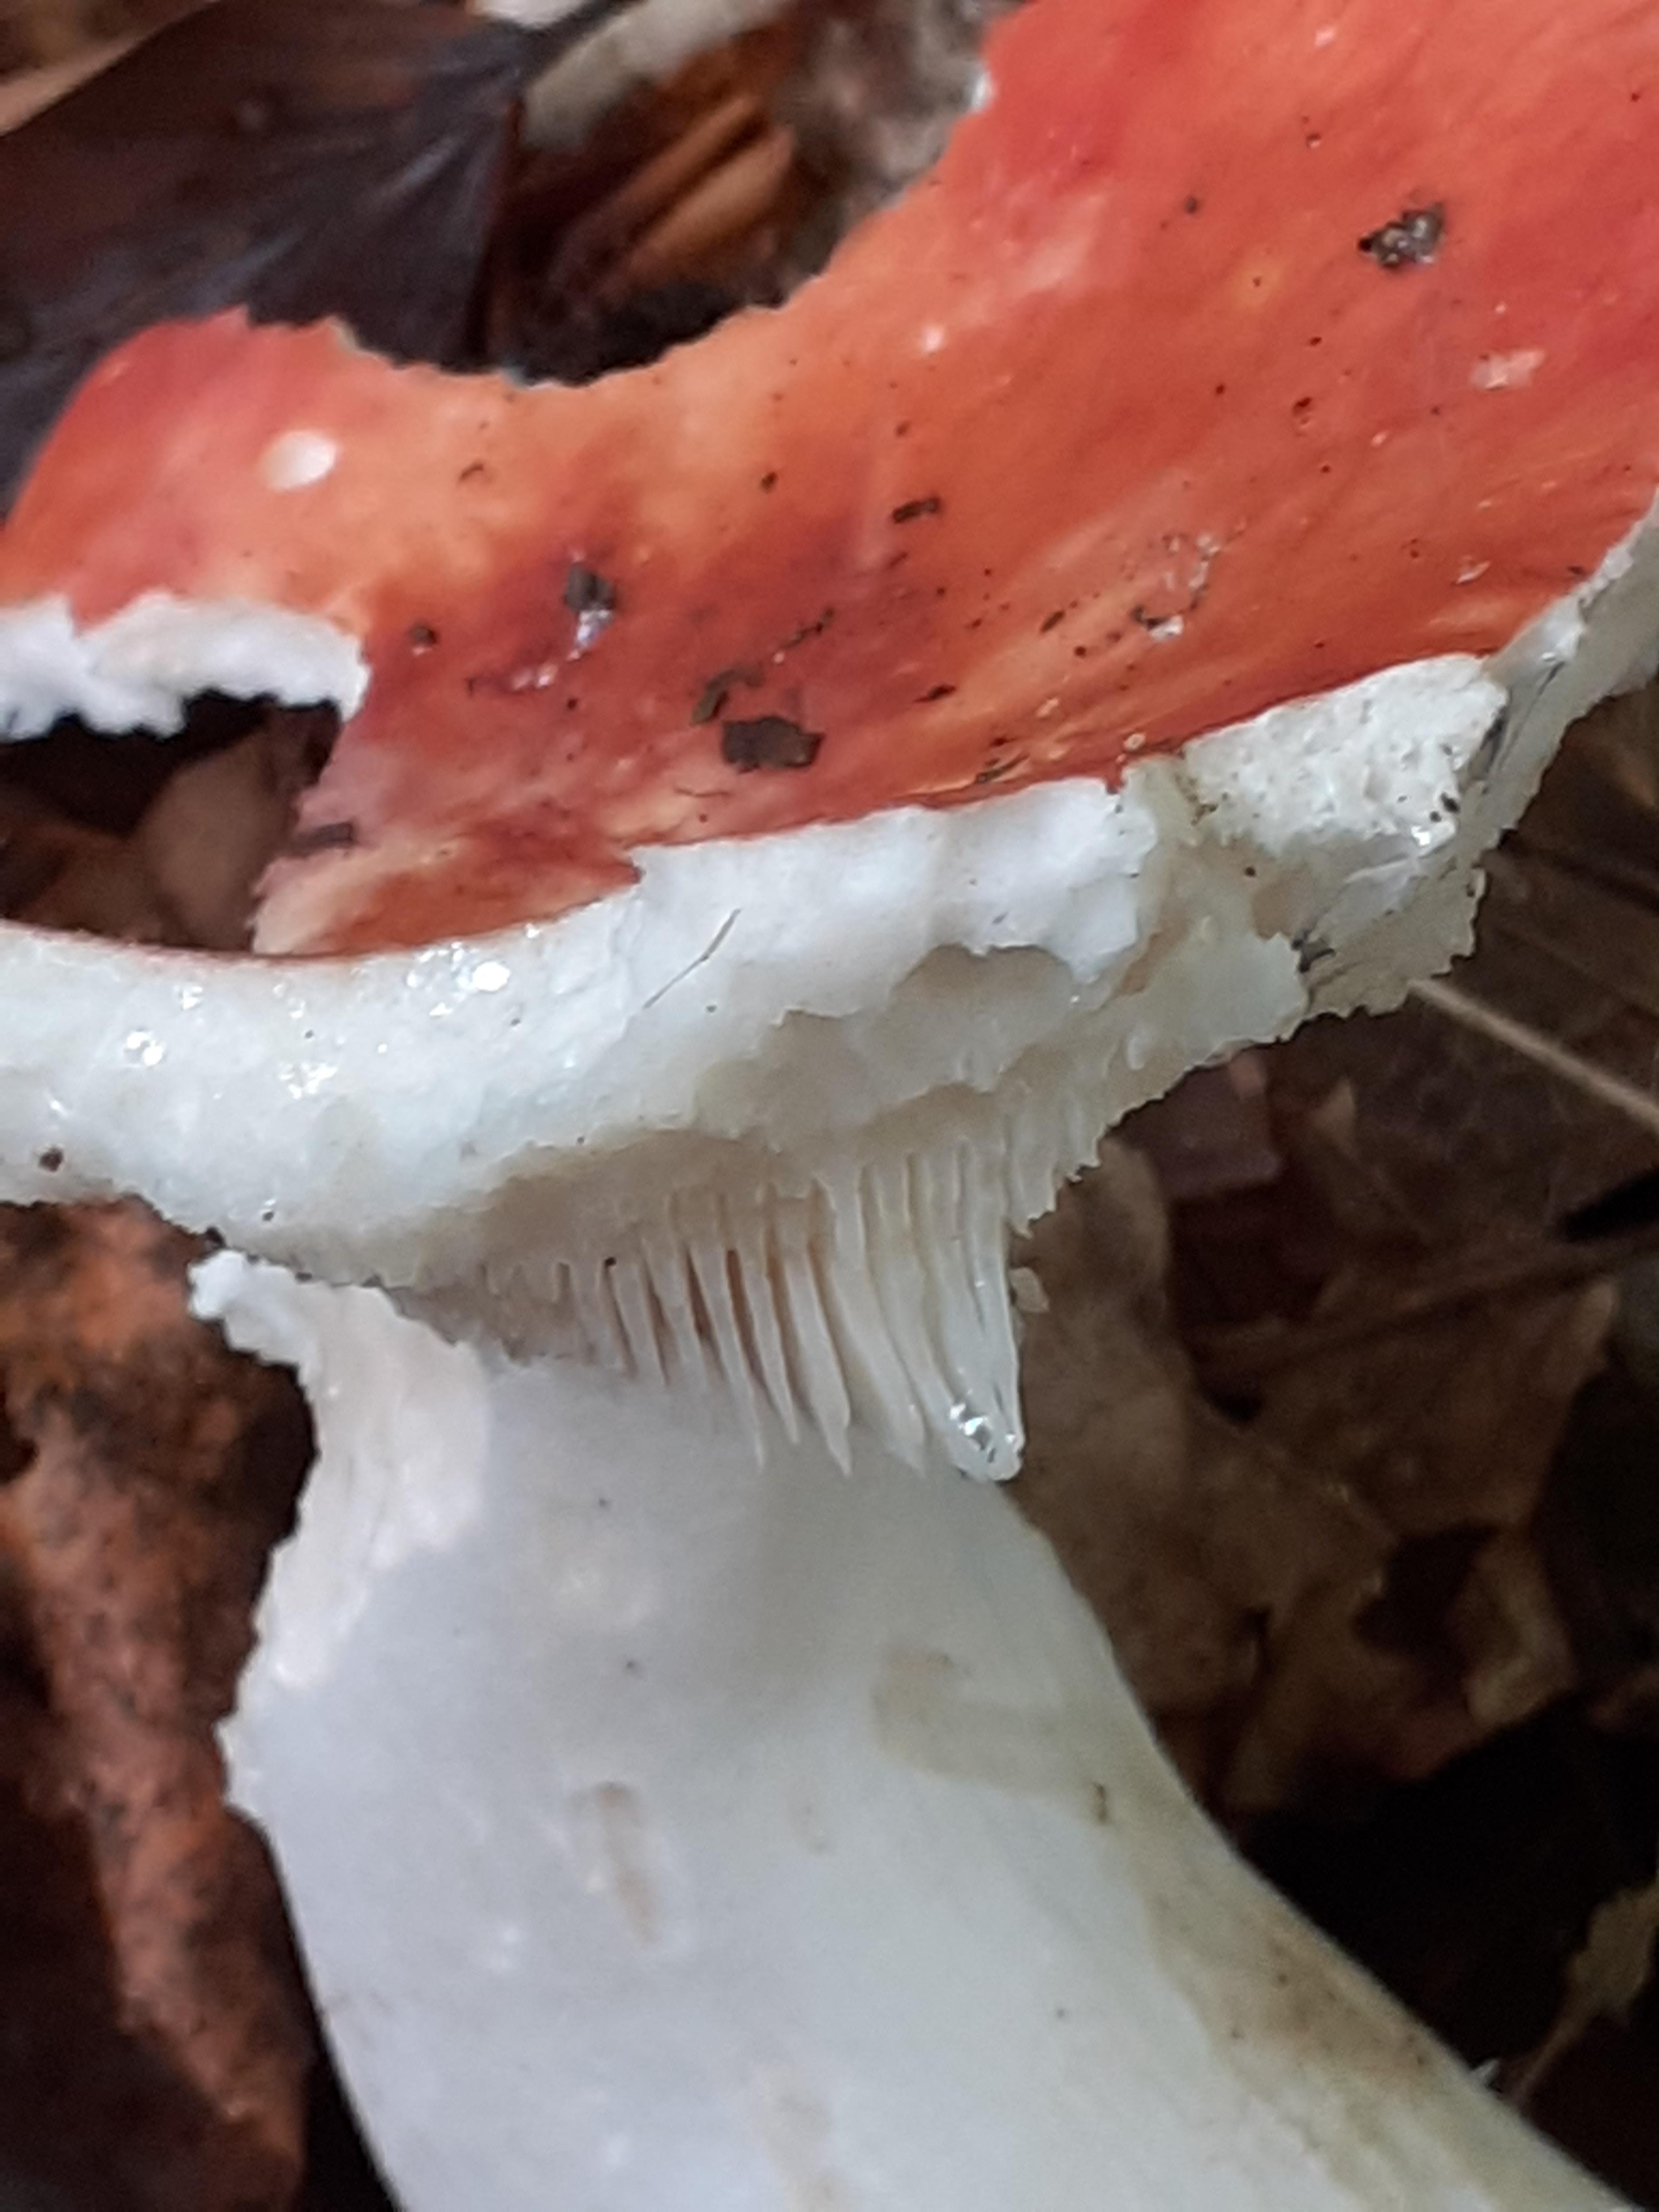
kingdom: Fungi
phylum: Basidiomycota
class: Agaricomycetes
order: Russulales
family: Russulaceae
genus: Russula
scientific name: Russula velenovskyi
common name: orangerød skørhat
